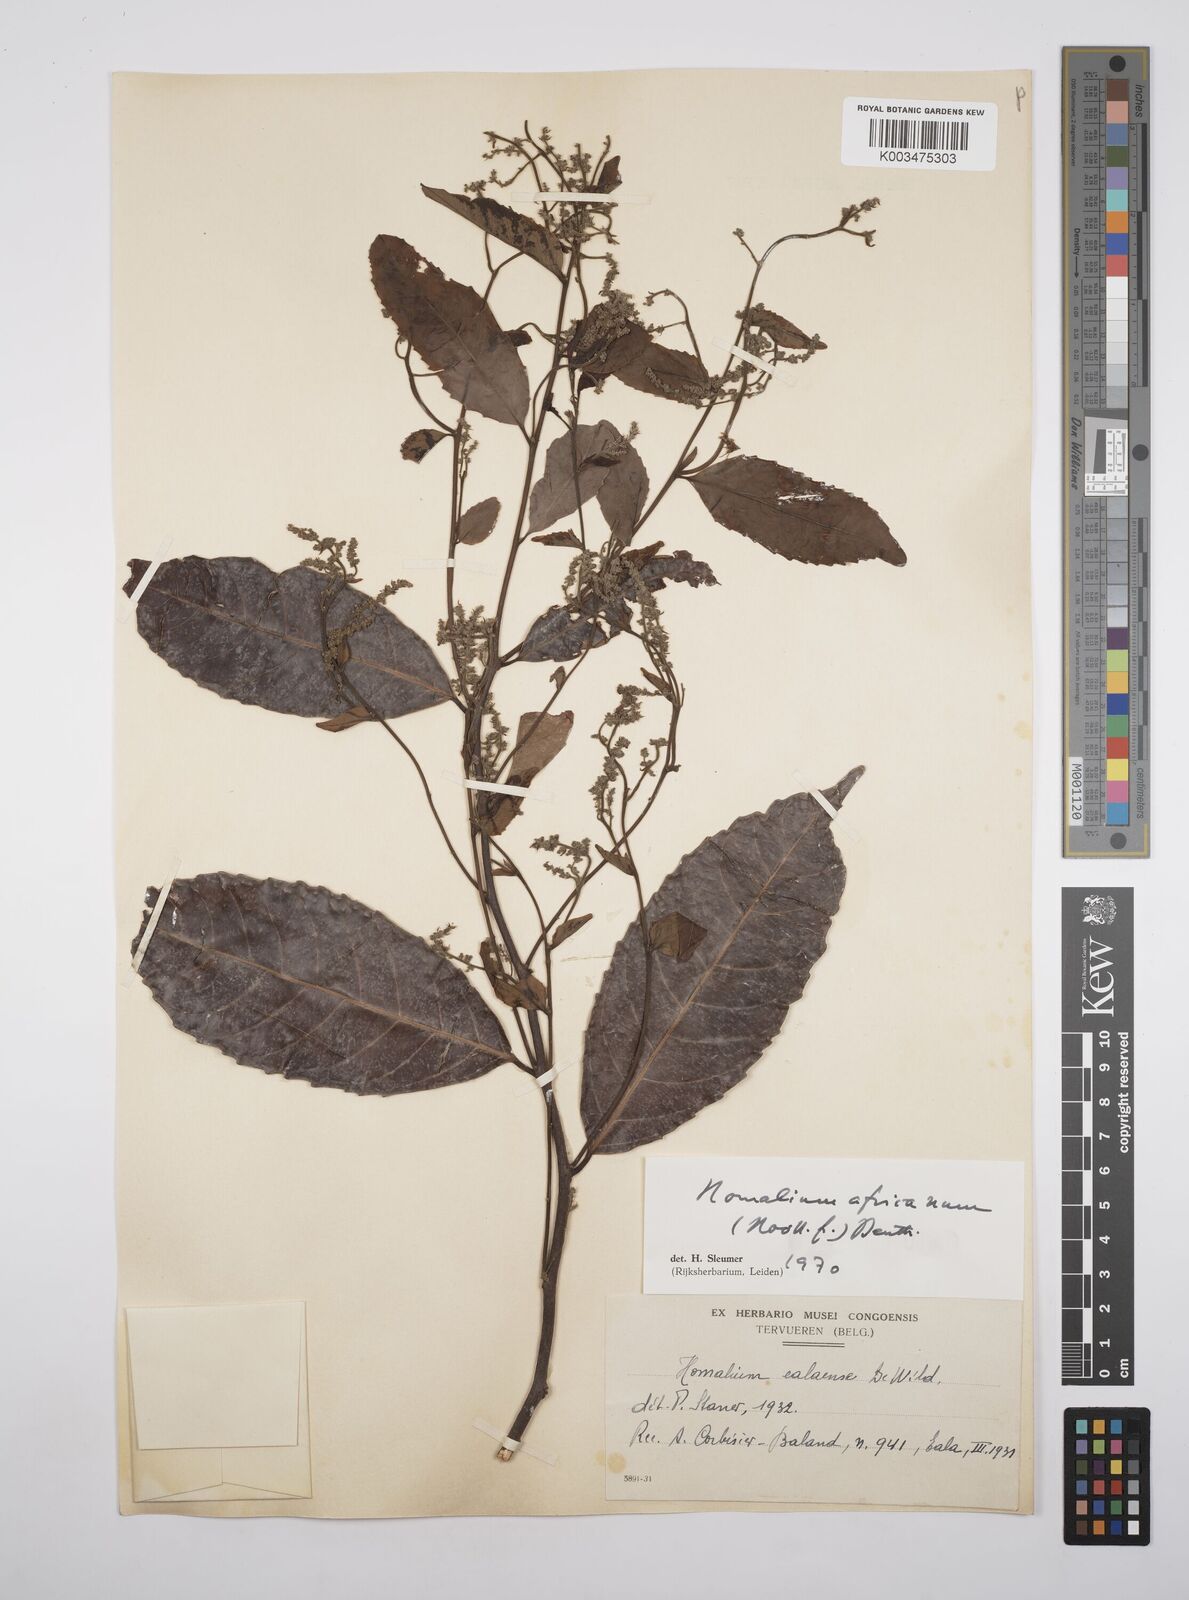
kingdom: Plantae
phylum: Tracheophyta
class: Magnoliopsida
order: Malpighiales
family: Salicaceae
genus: Homalium
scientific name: Homalium africanum
